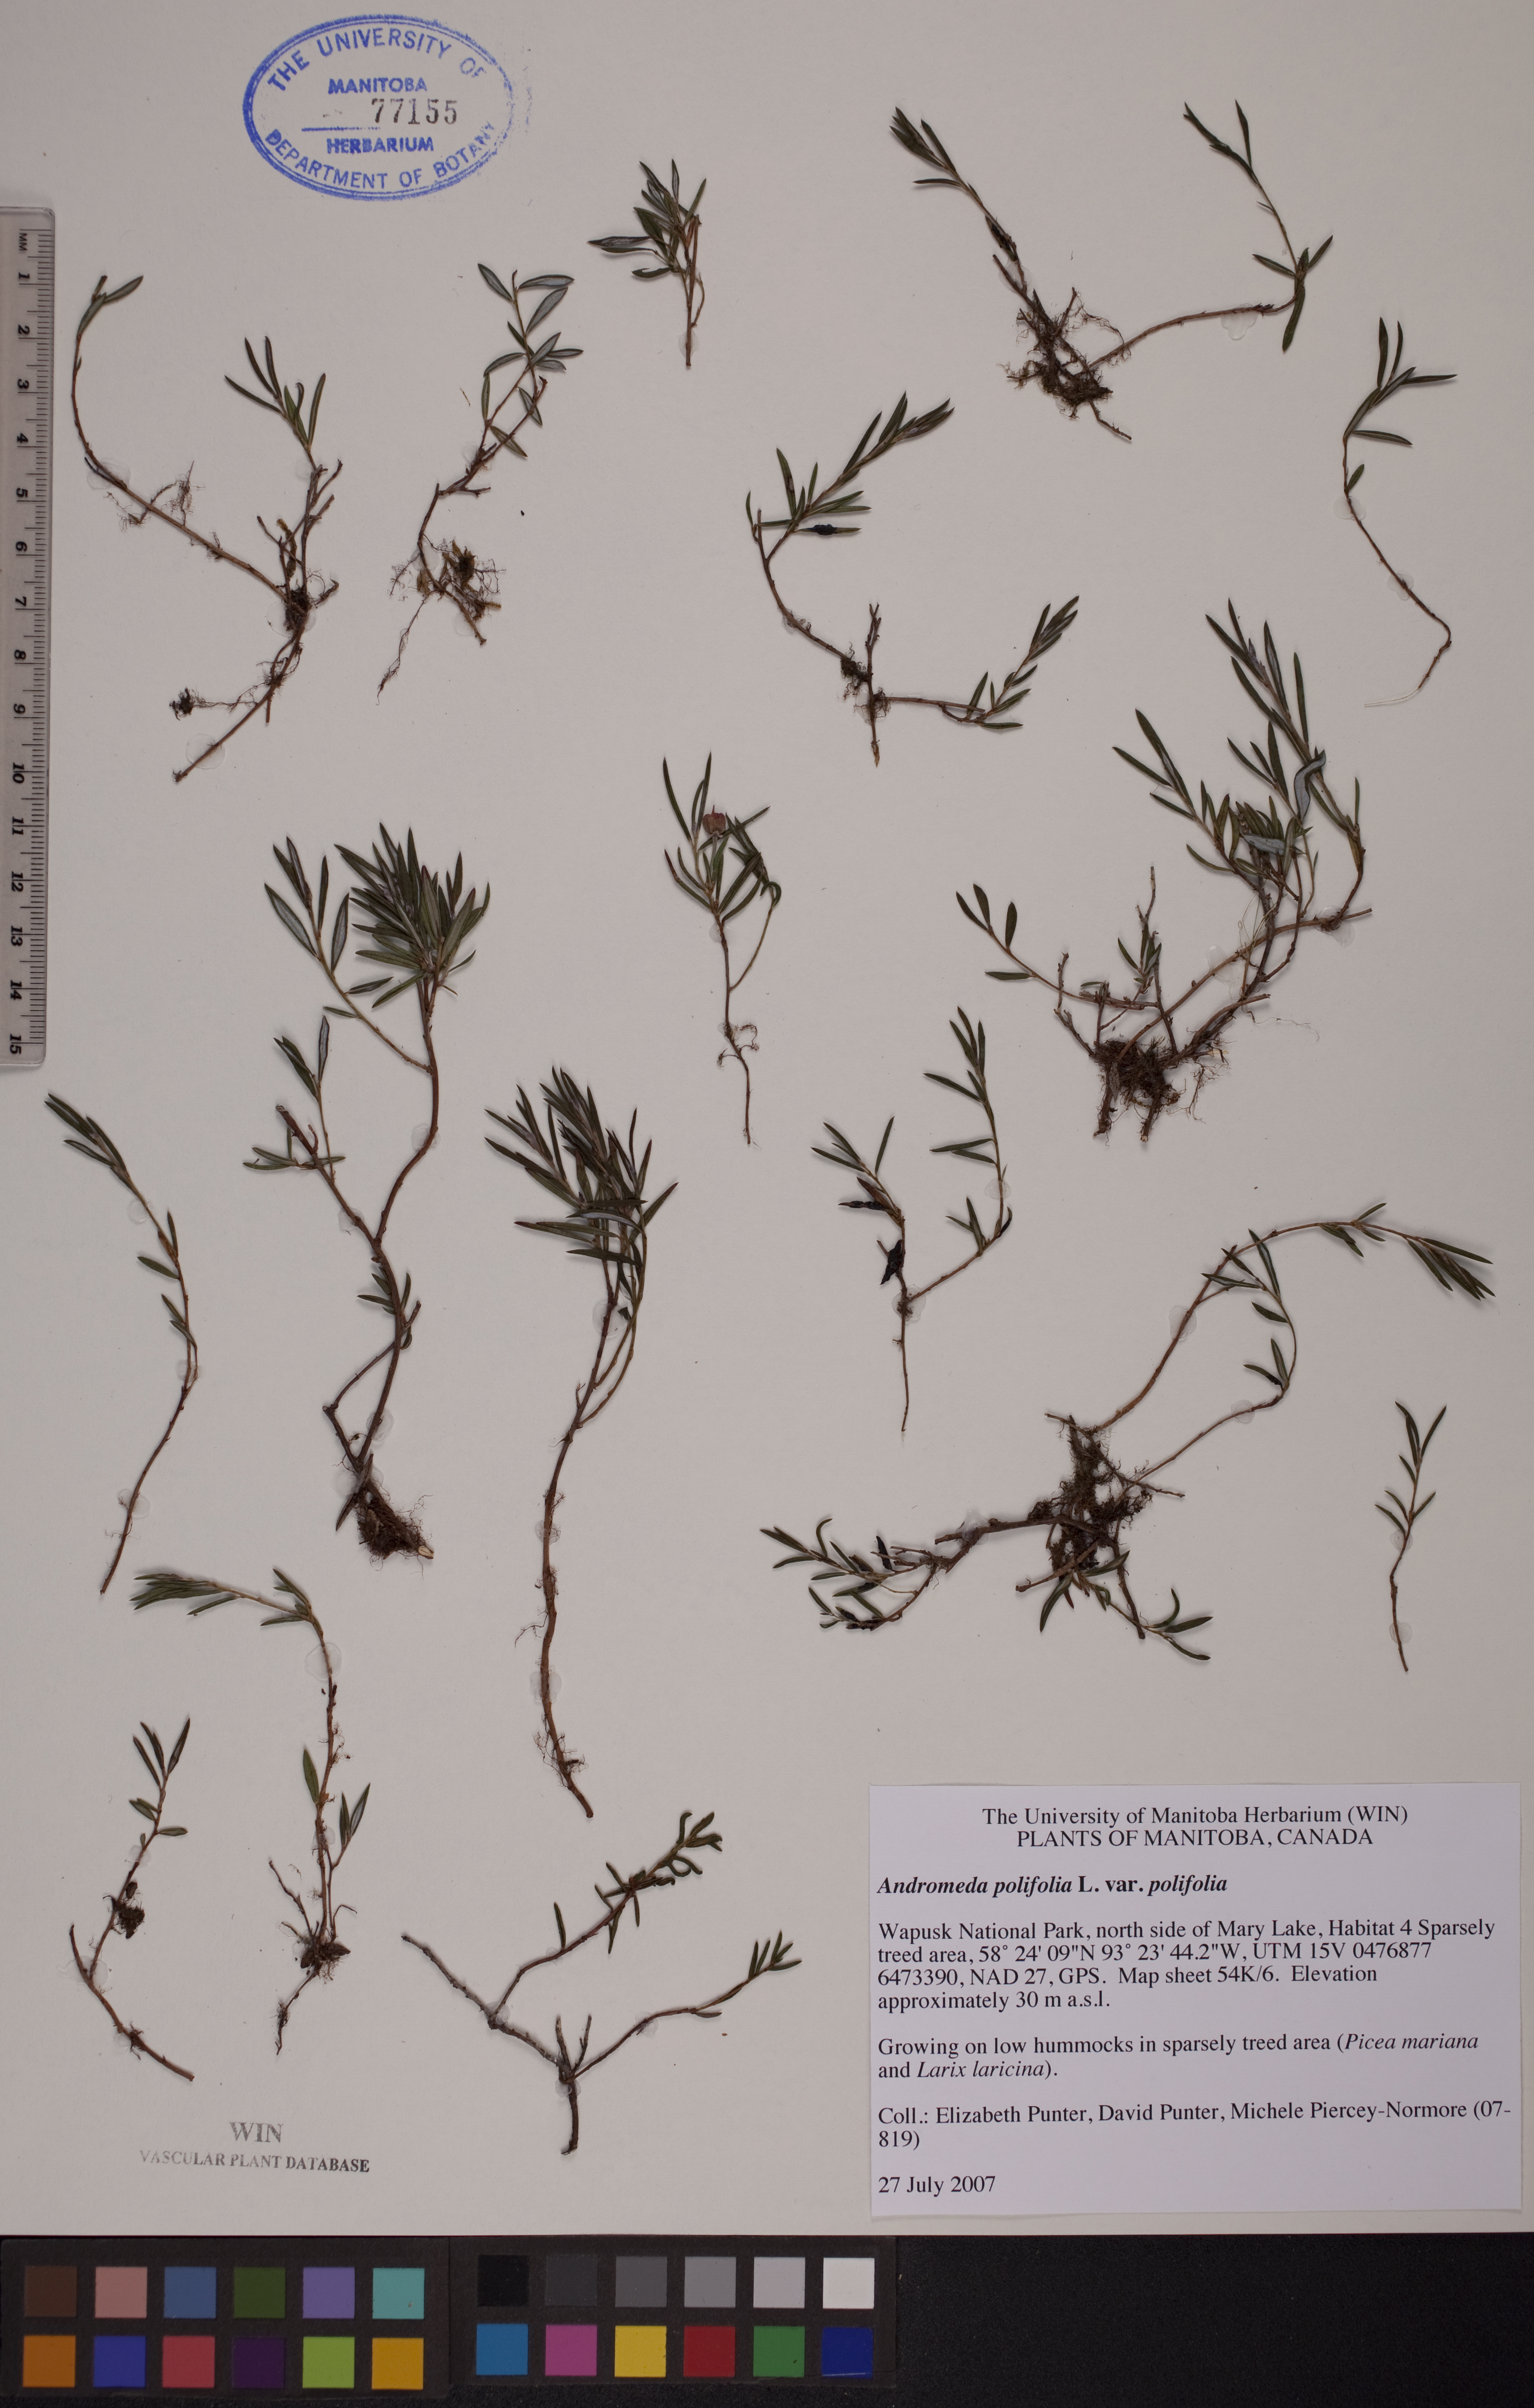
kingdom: Plantae
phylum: Tracheophyta
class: Magnoliopsida
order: Ericales
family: Ericaceae
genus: Andromeda
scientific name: Andromeda polifolia
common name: Bog-rosemary
